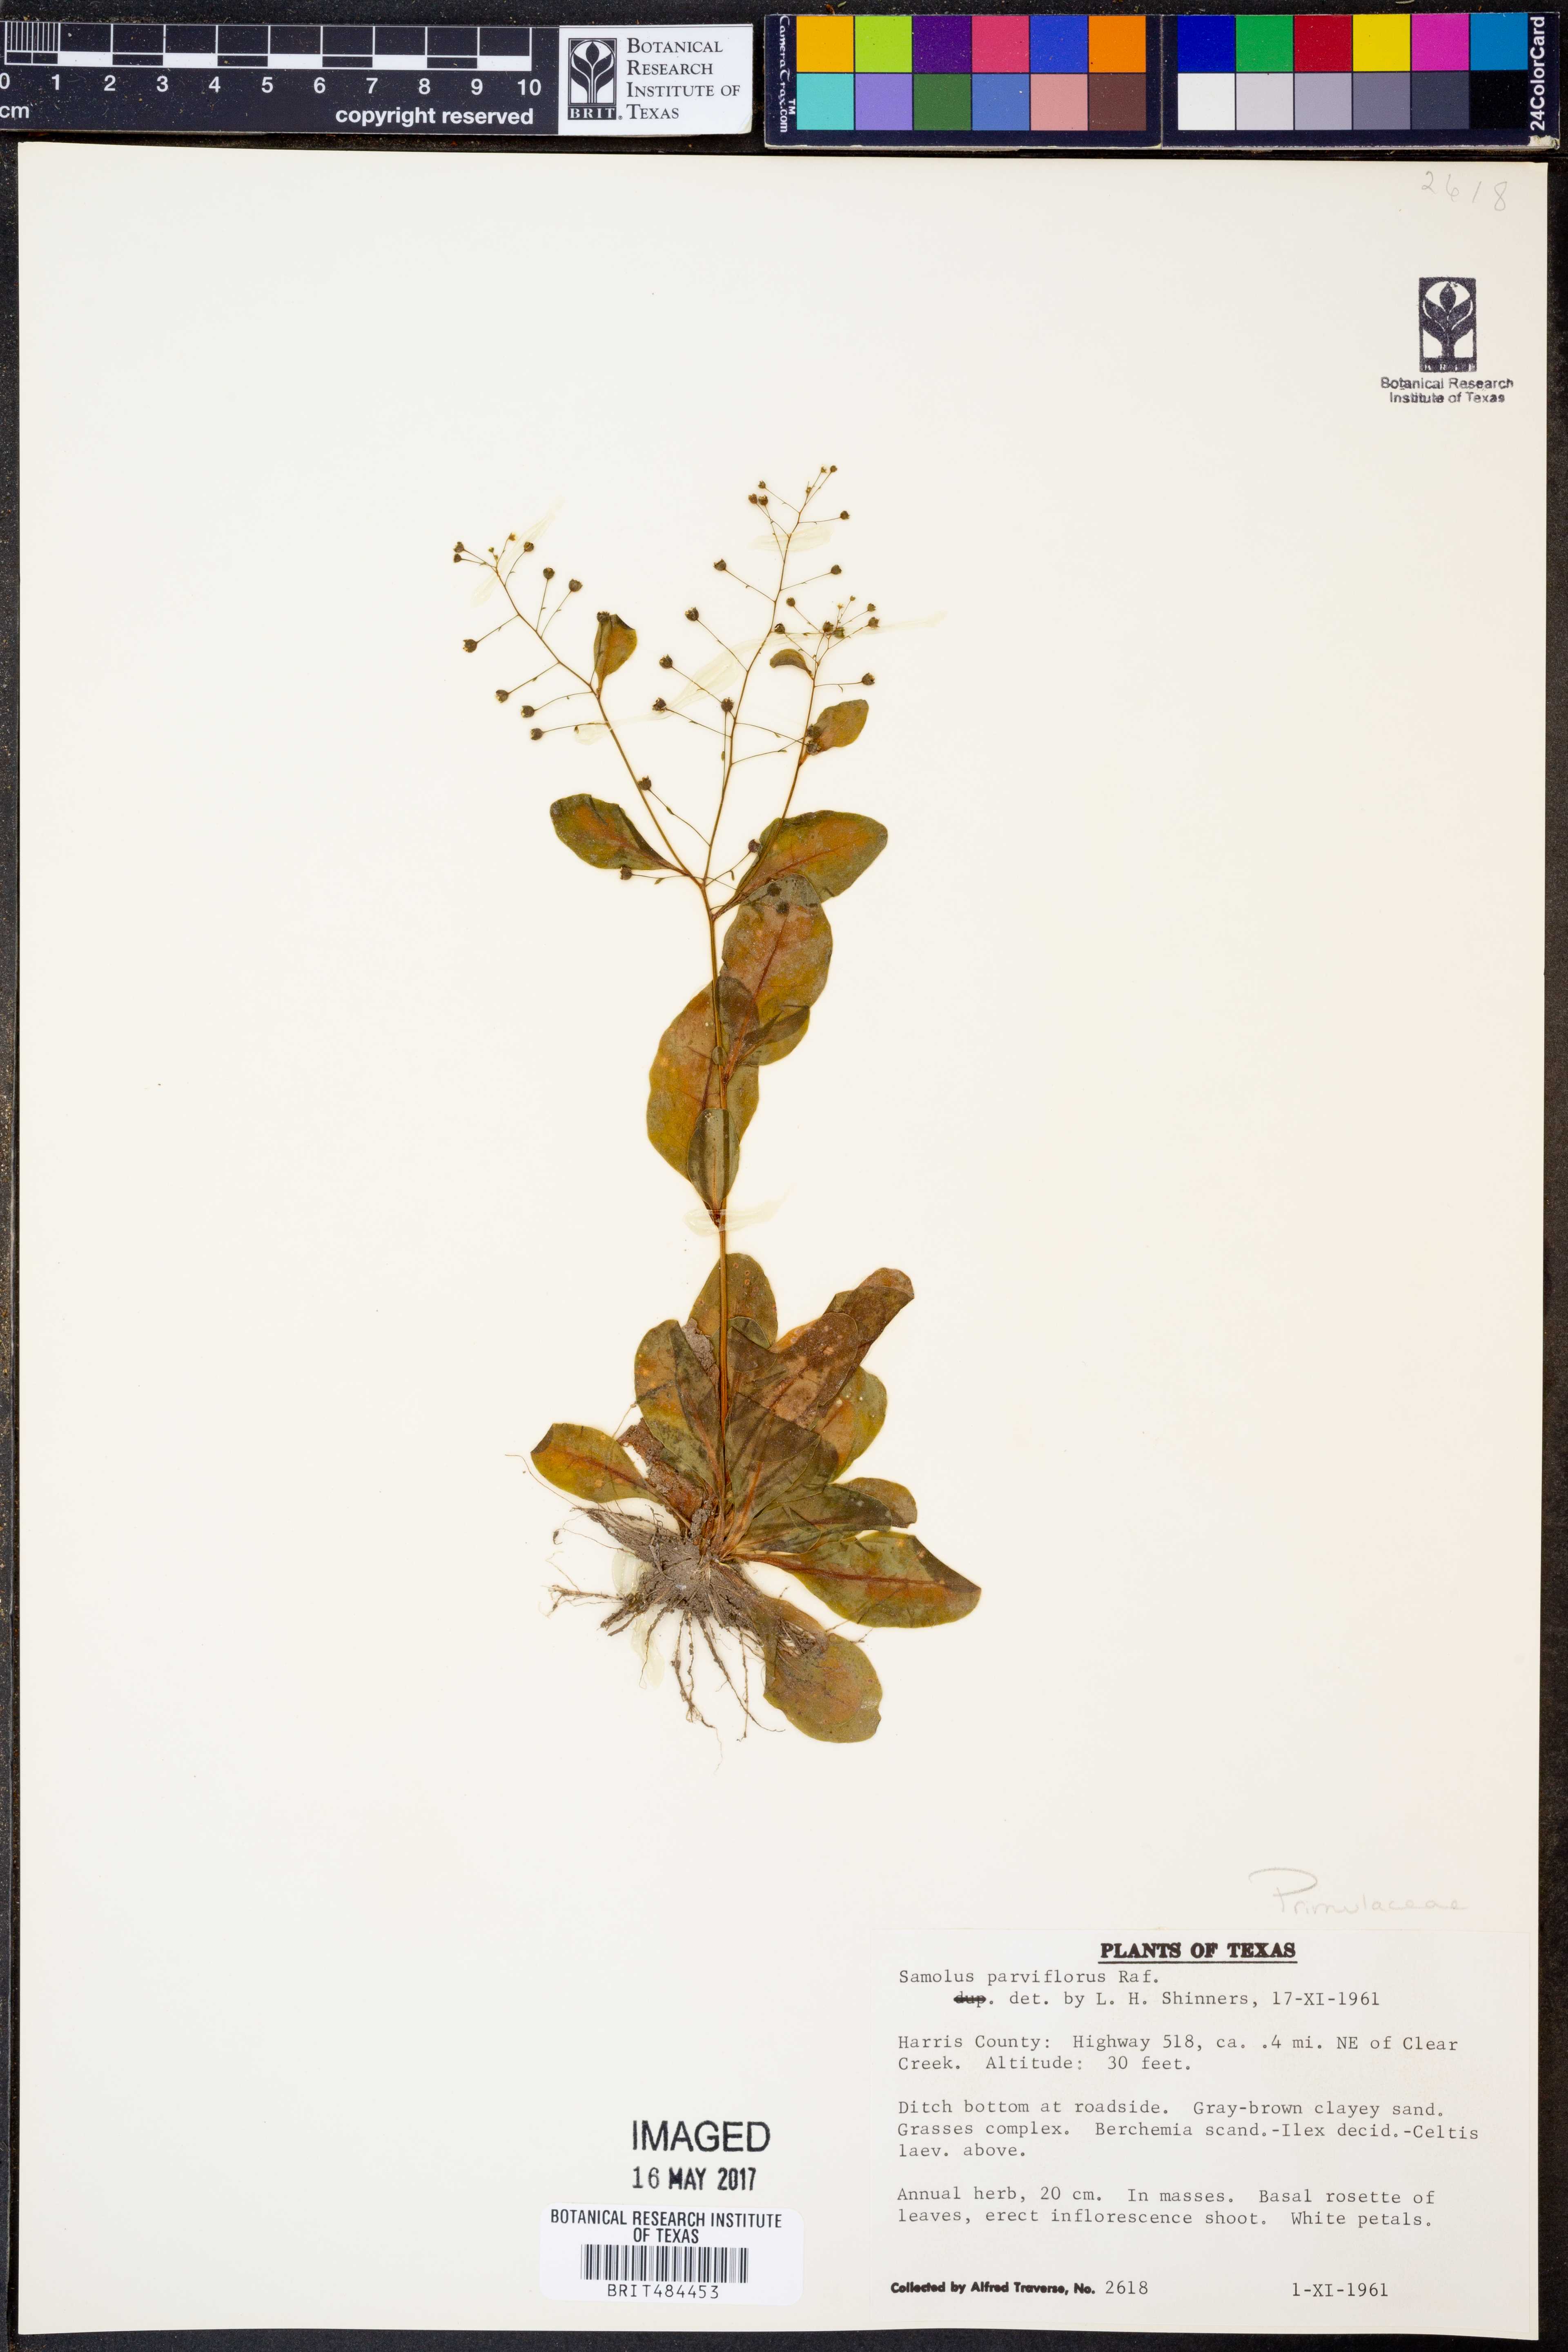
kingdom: Plantae
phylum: Tracheophyta
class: Magnoliopsida
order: Ericales
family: Primulaceae
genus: Samolus
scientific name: Samolus parviflorus
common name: False water pimpernel
